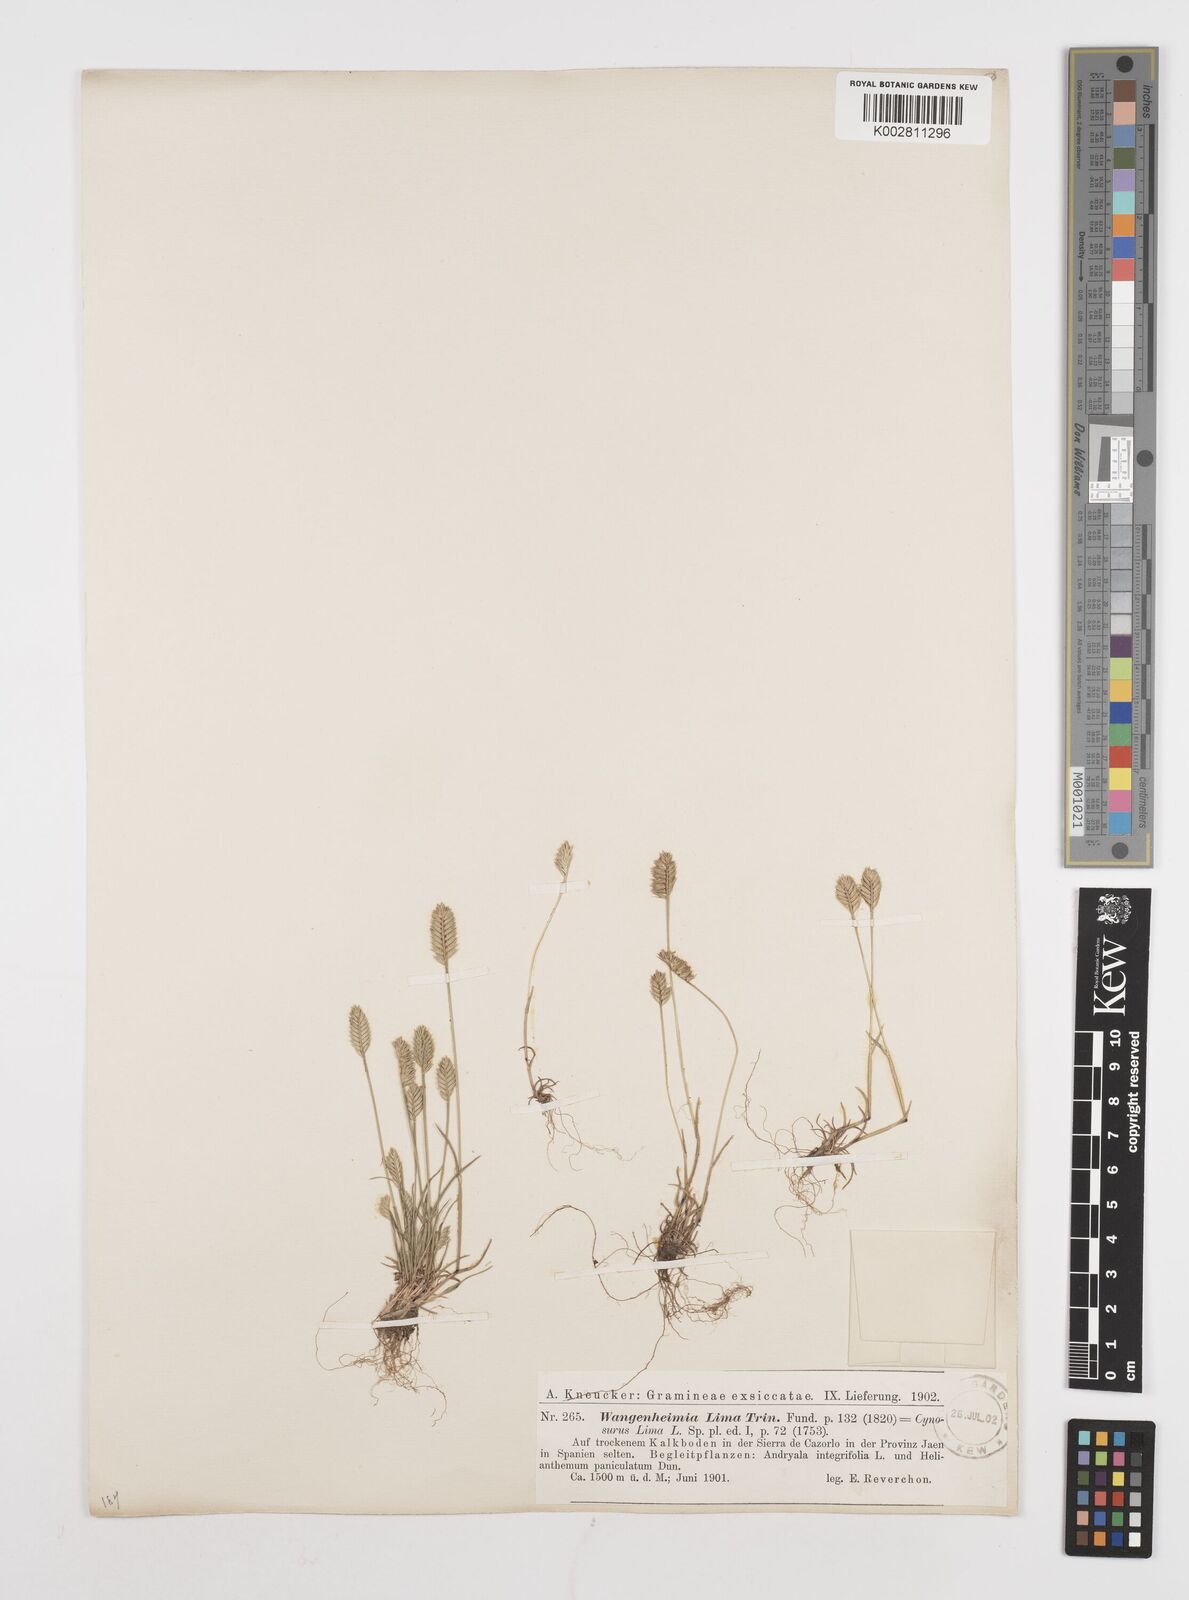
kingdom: Plantae
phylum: Tracheophyta
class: Liliopsida
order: Poales
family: Poaceae
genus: Wangenheimia
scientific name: Wangenheimia lima
